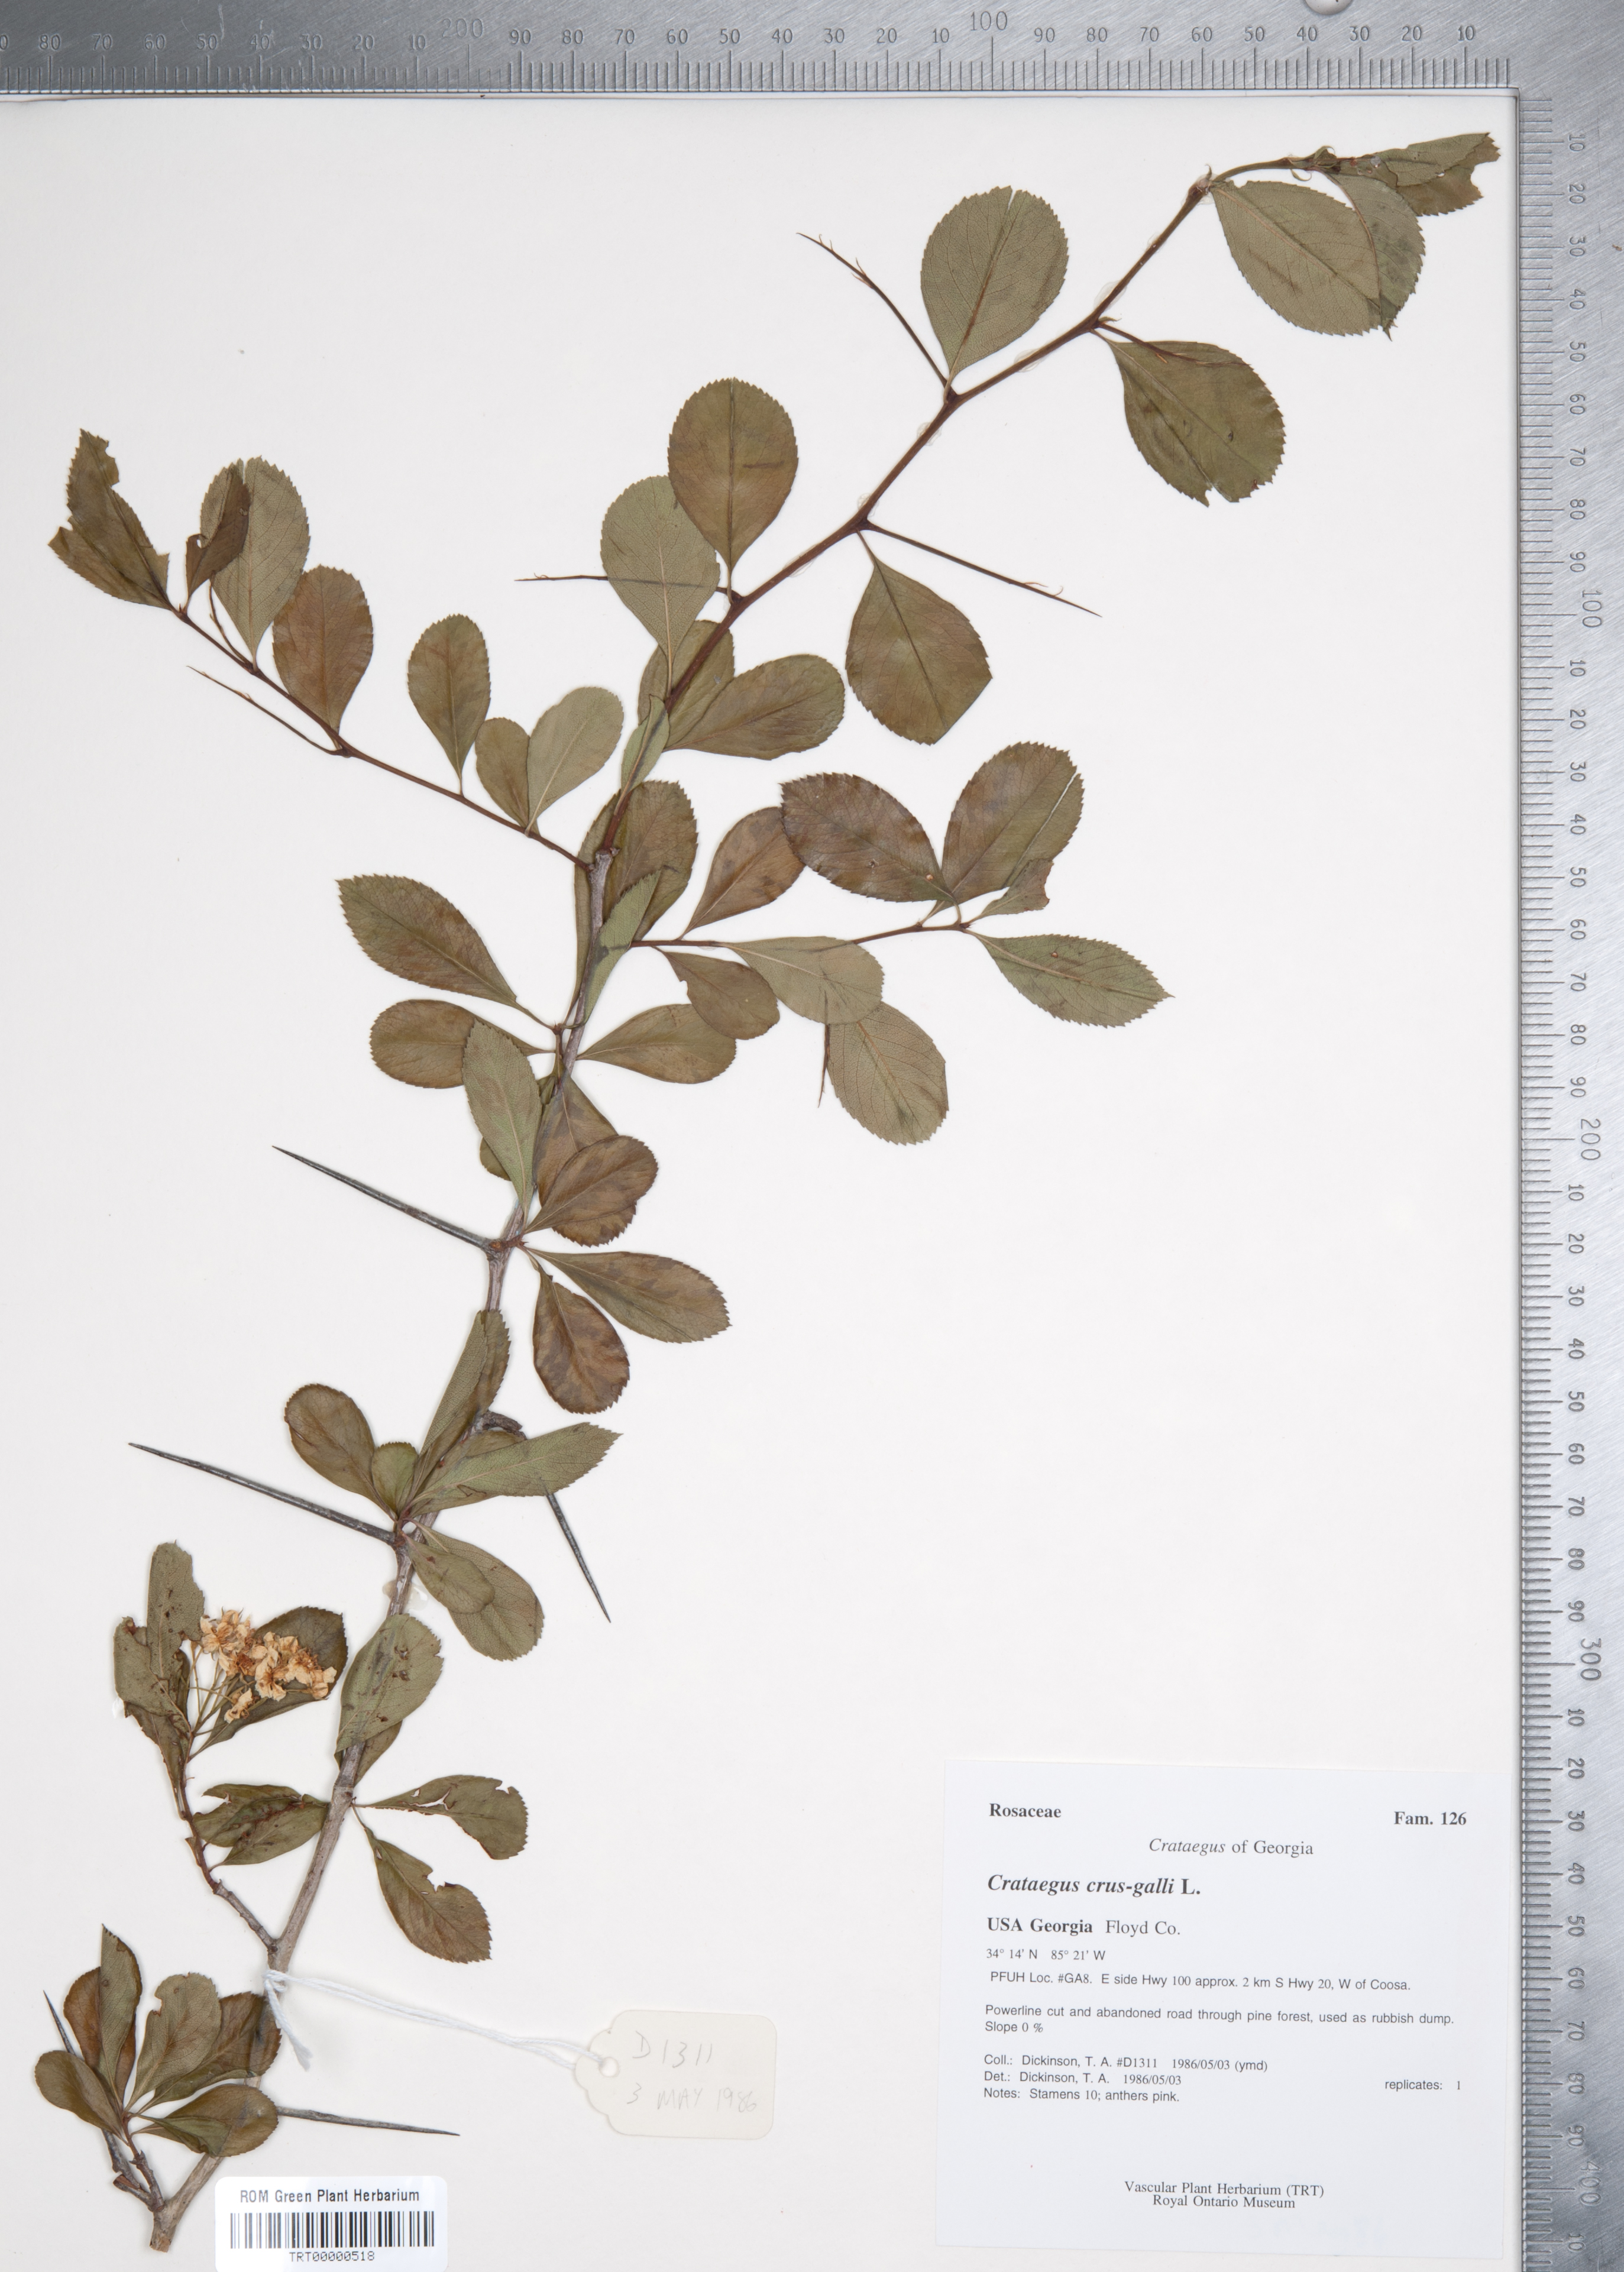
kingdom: Plantae
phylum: Tracheophyta
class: Magnoliopsida
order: Rosales
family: Rosaceae
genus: Crataegus
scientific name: Crataegus crus-galli
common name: Cockspurthorn
